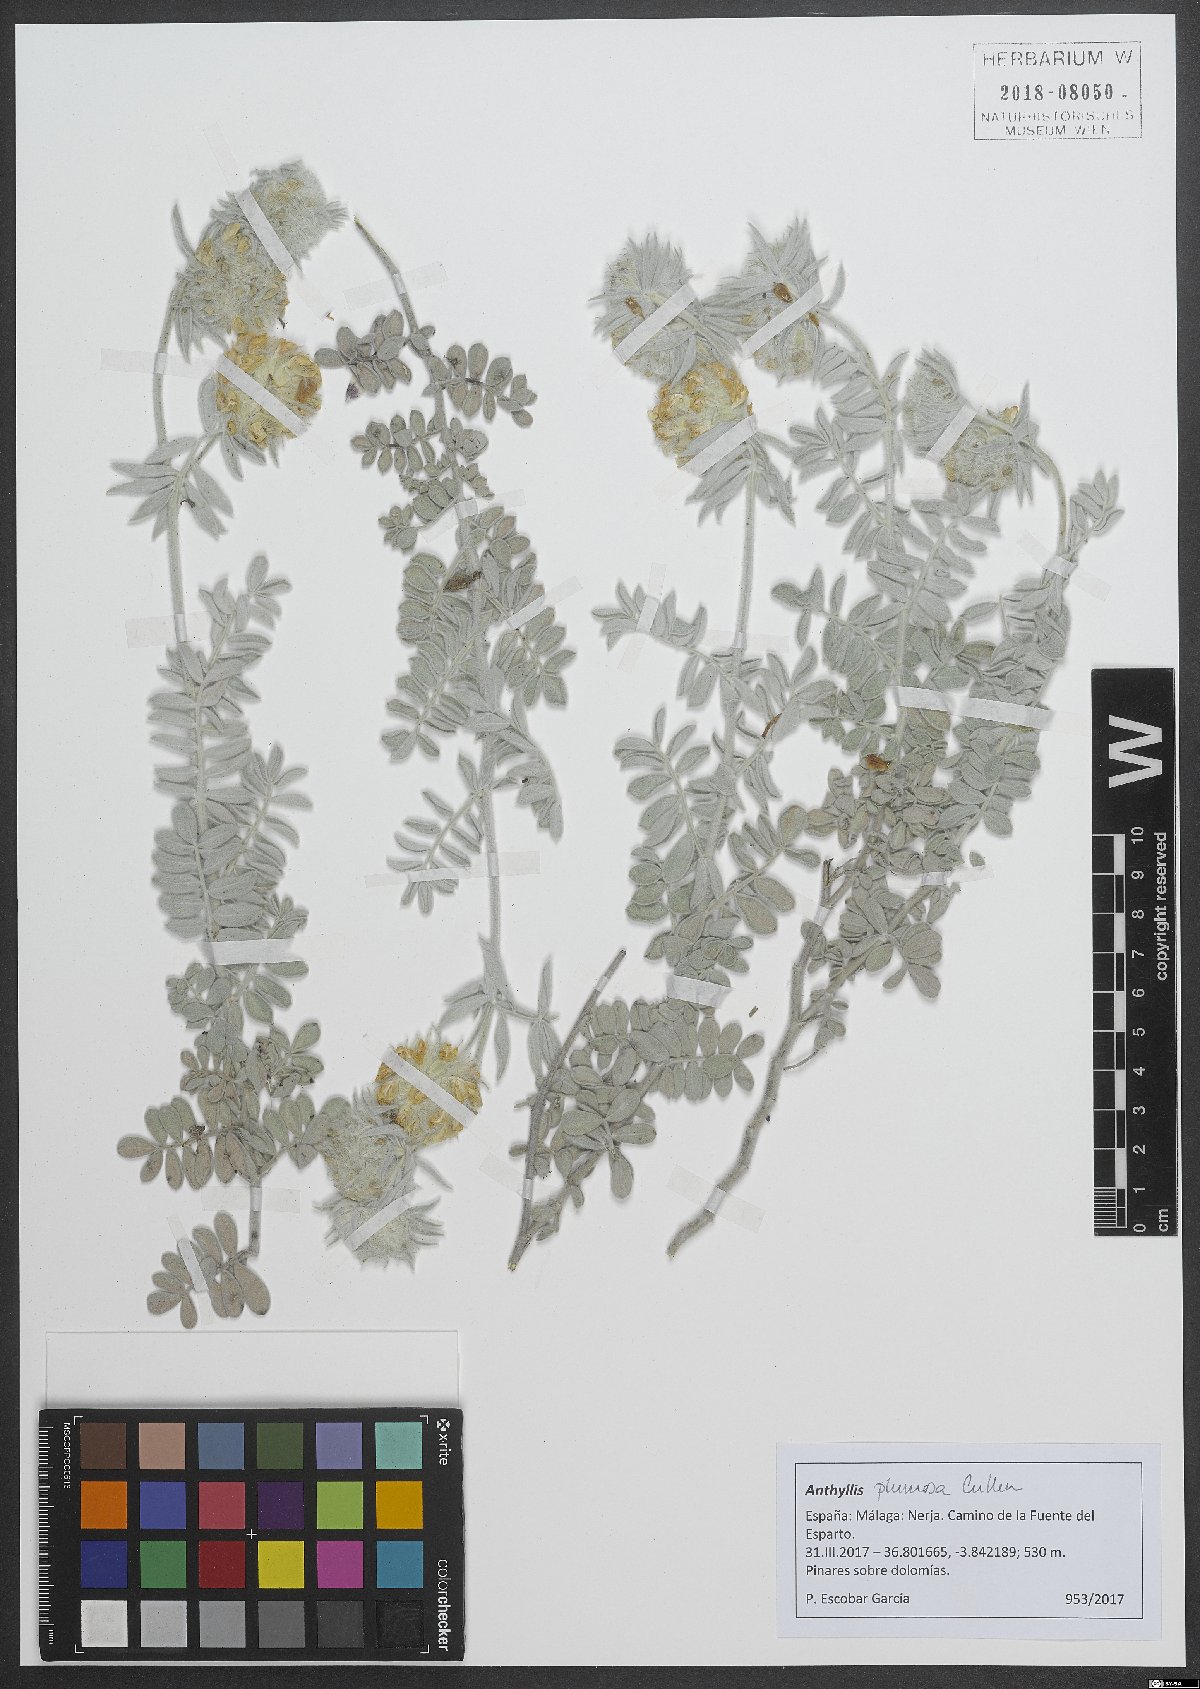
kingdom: Plantae
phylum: Tracheophyta
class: Magnoliopsida
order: Fabales
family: Fabaceae
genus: Anthyllis
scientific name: Anthyllis tejedensis
